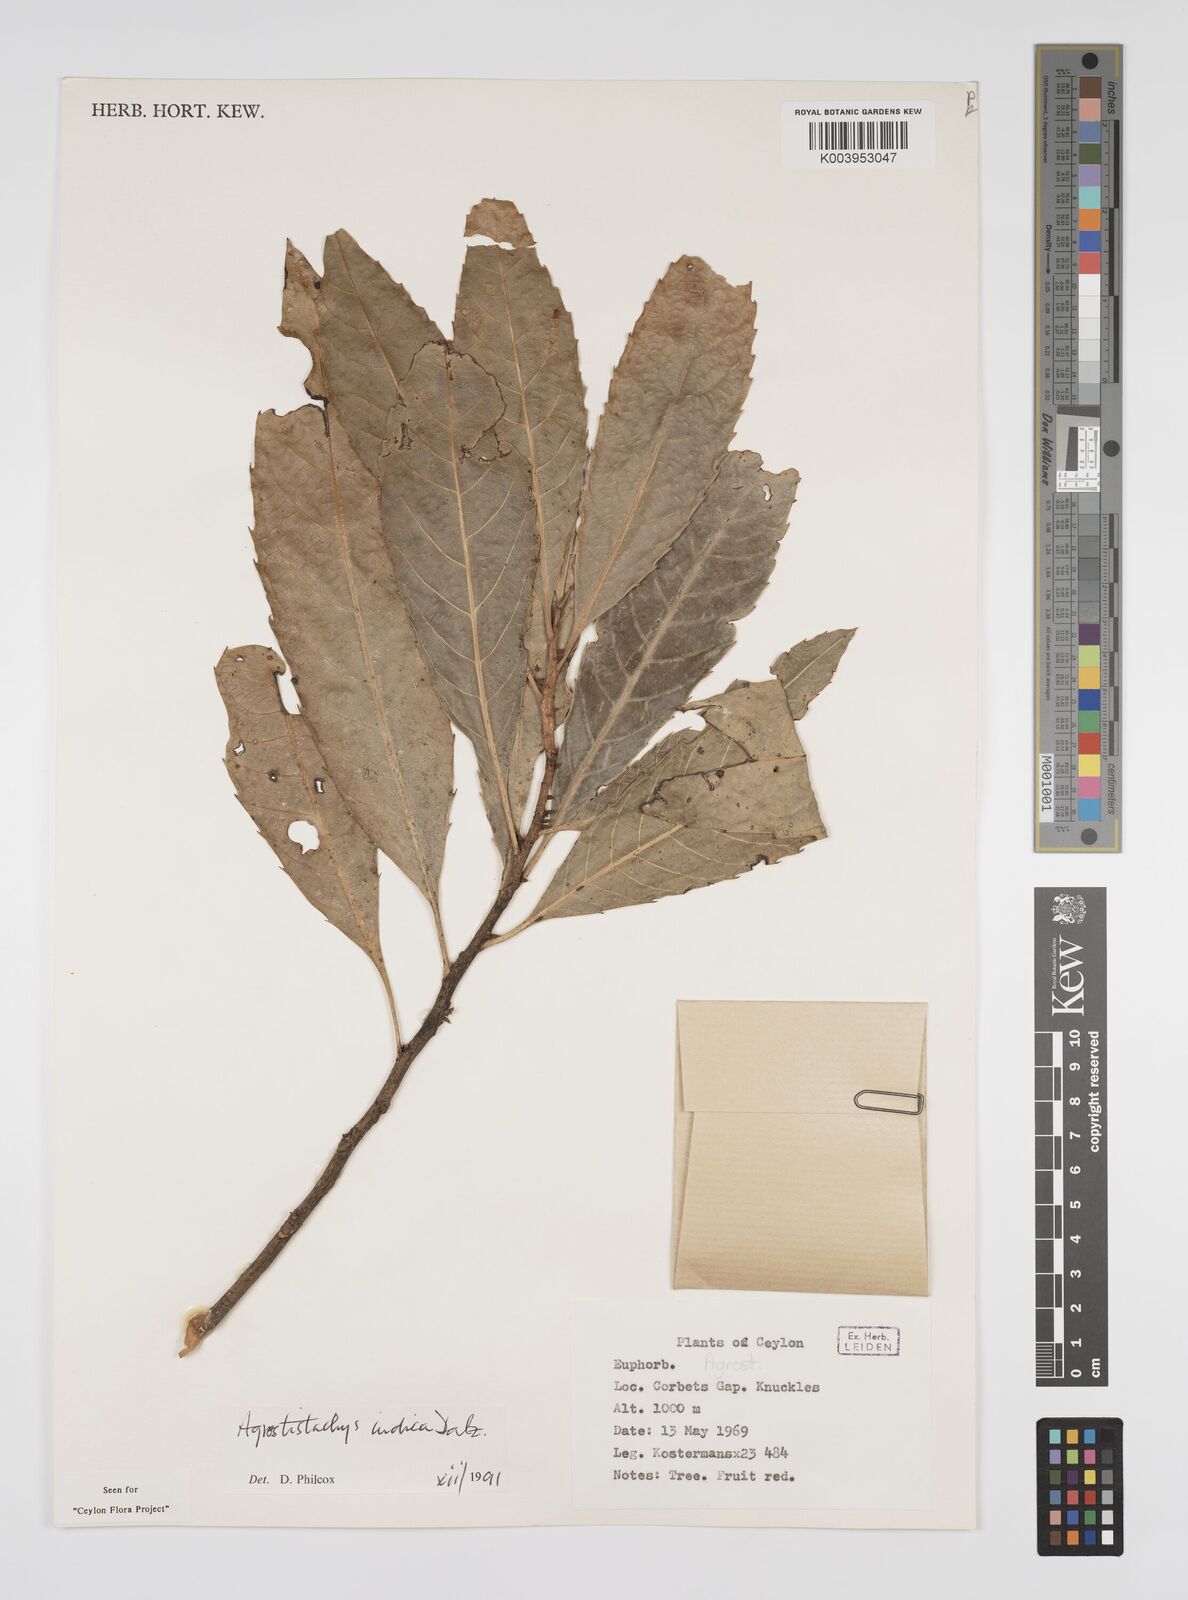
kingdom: Plantae
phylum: Tracheophyta
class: Magnoliopsida
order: Malpighiales
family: Euphorbiaceae
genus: Agrostistachys
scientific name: Agrostistachys indica
